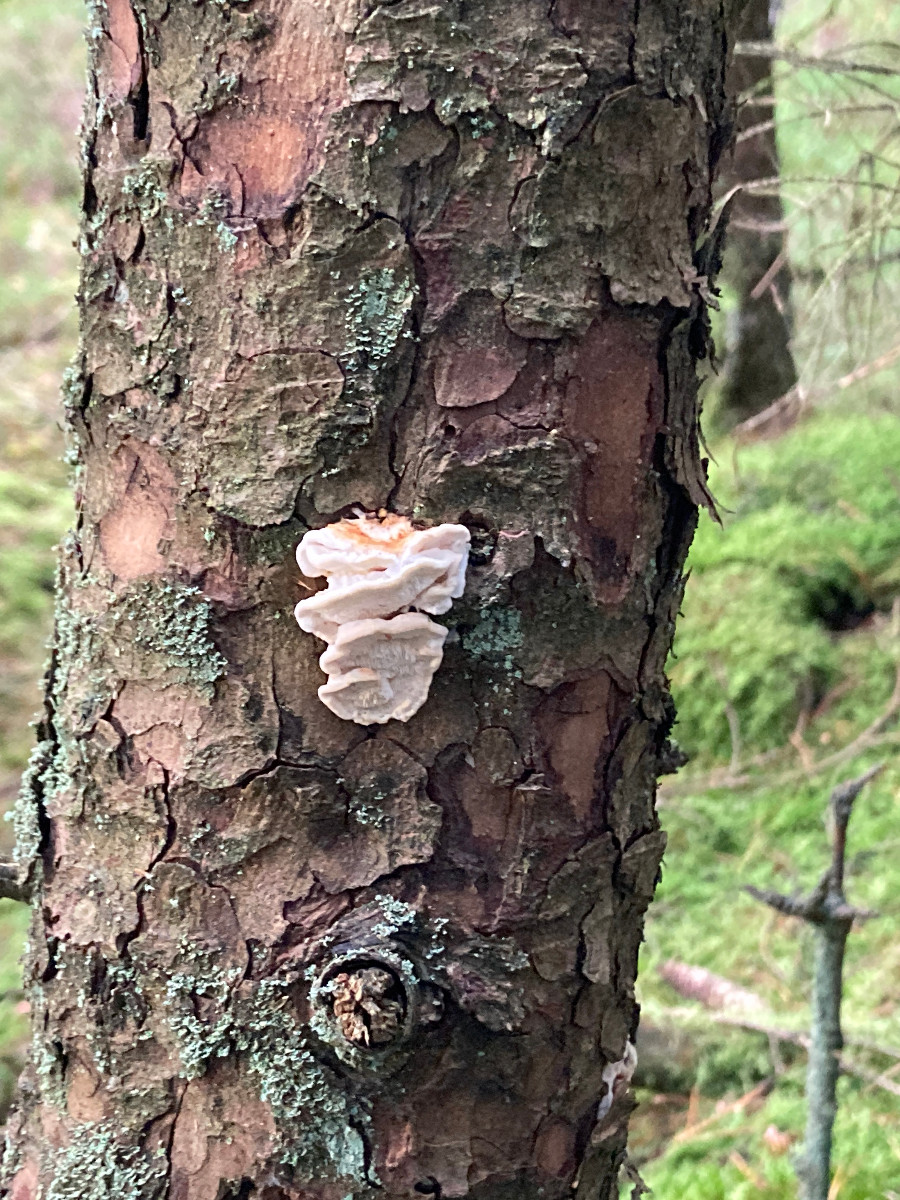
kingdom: Fungi
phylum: Basidiomycota
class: Agaricomycetes
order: Polyporales
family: Fomitopsidaceae
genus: Fomitopsis
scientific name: Fomitopsis
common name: fyrre-skiveporesvamp
